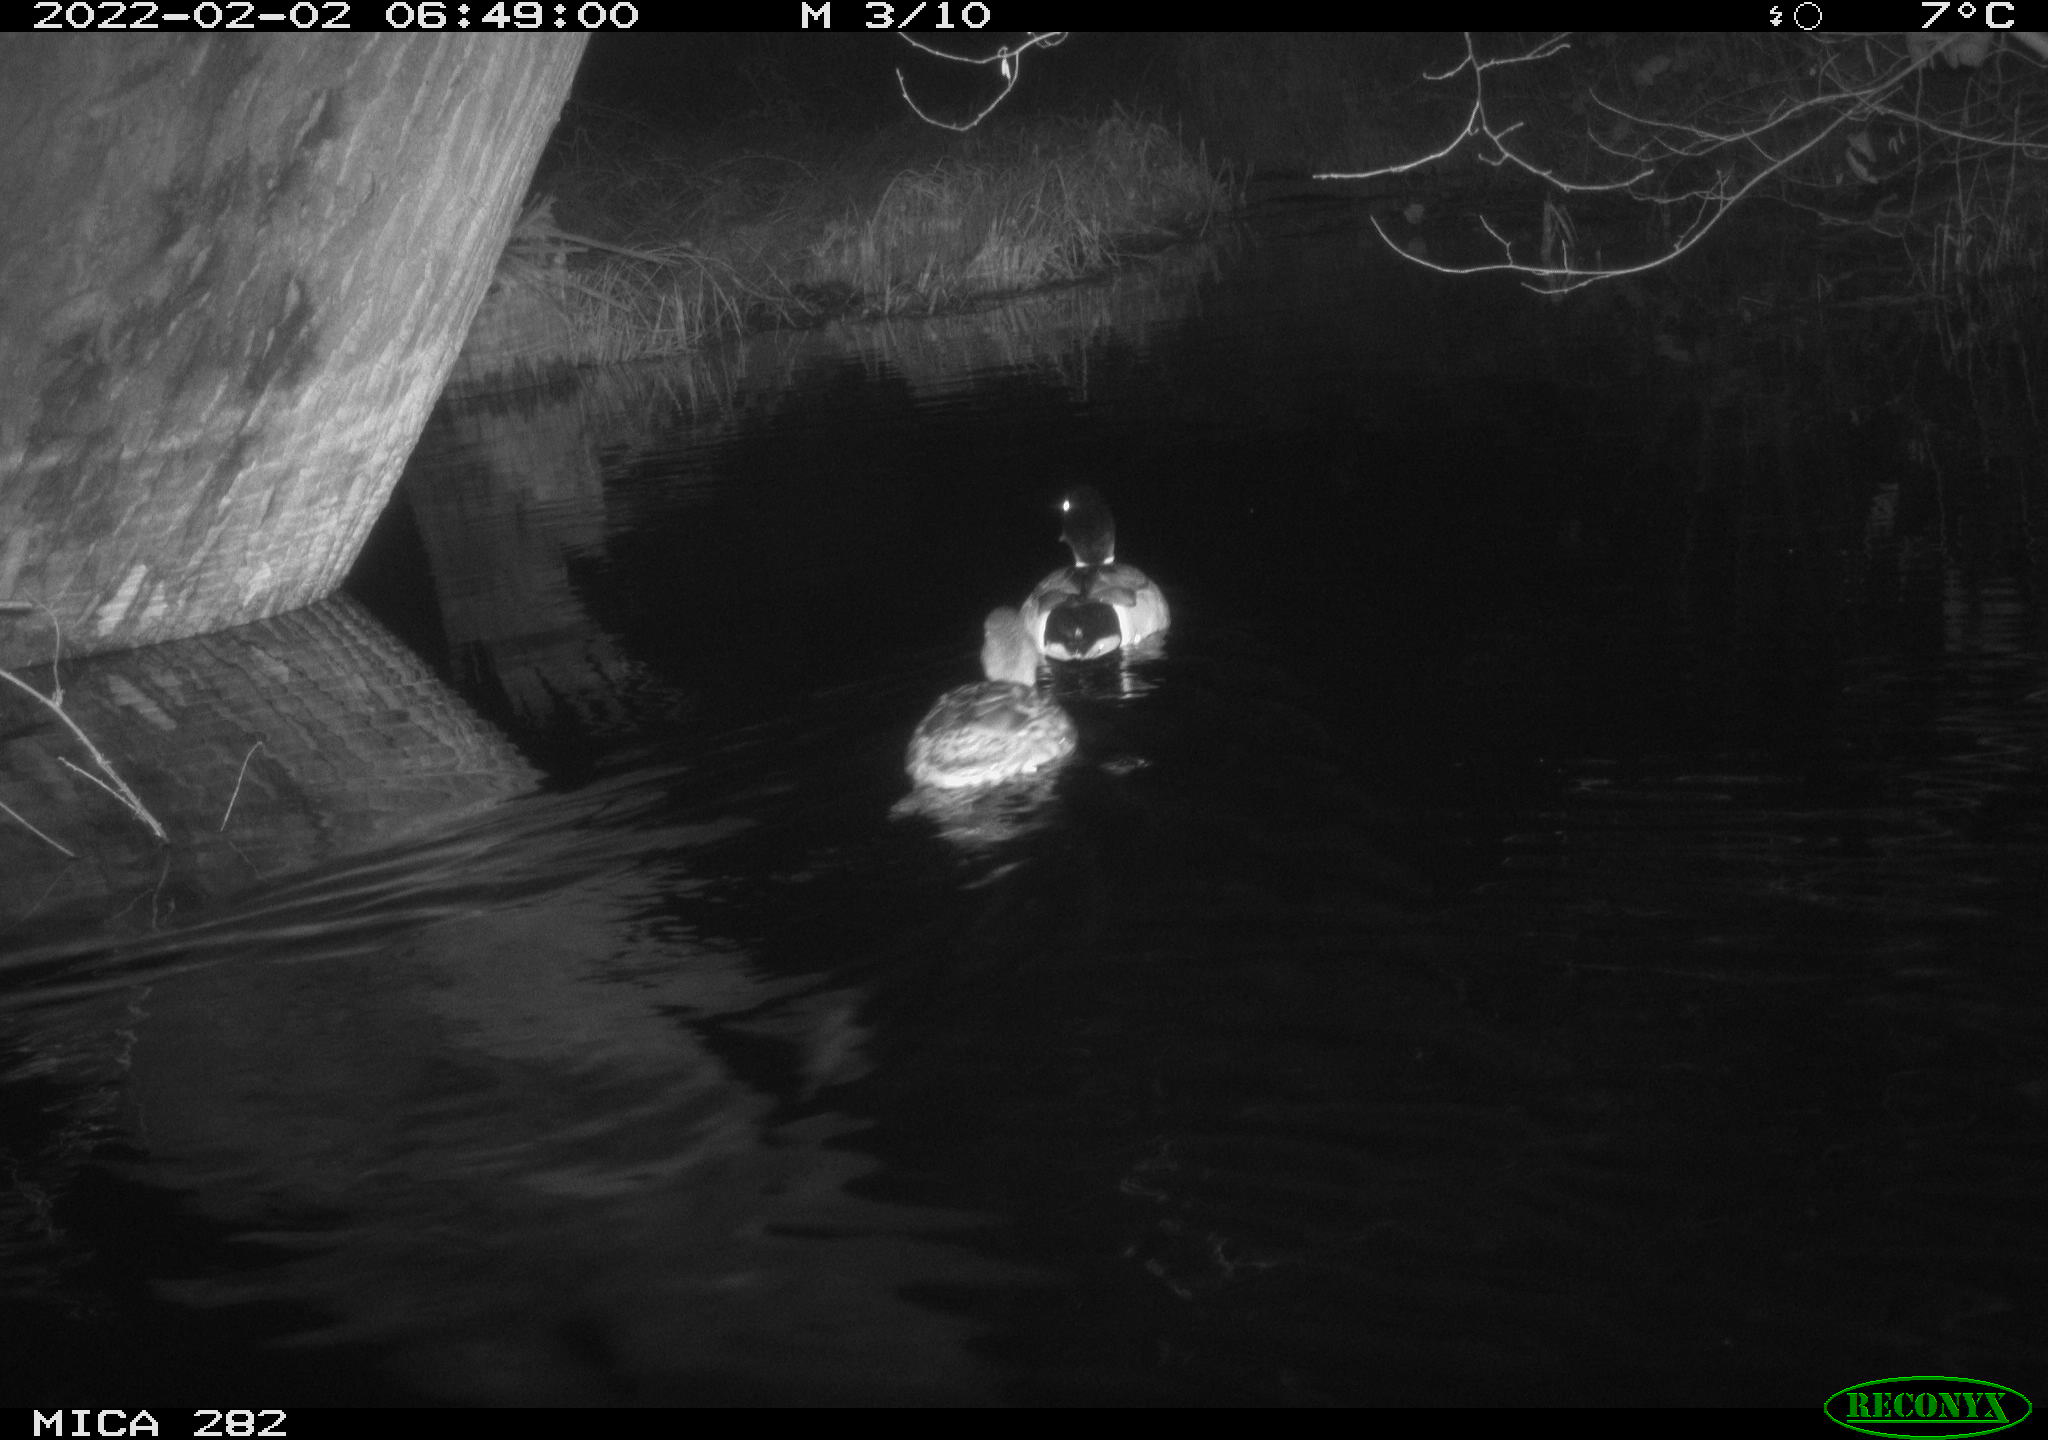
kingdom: Animalia
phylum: Chordata
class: Aves
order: Anseriformes
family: Anatidae
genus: Anas
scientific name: Anas platyrhynchos
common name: Mallard
